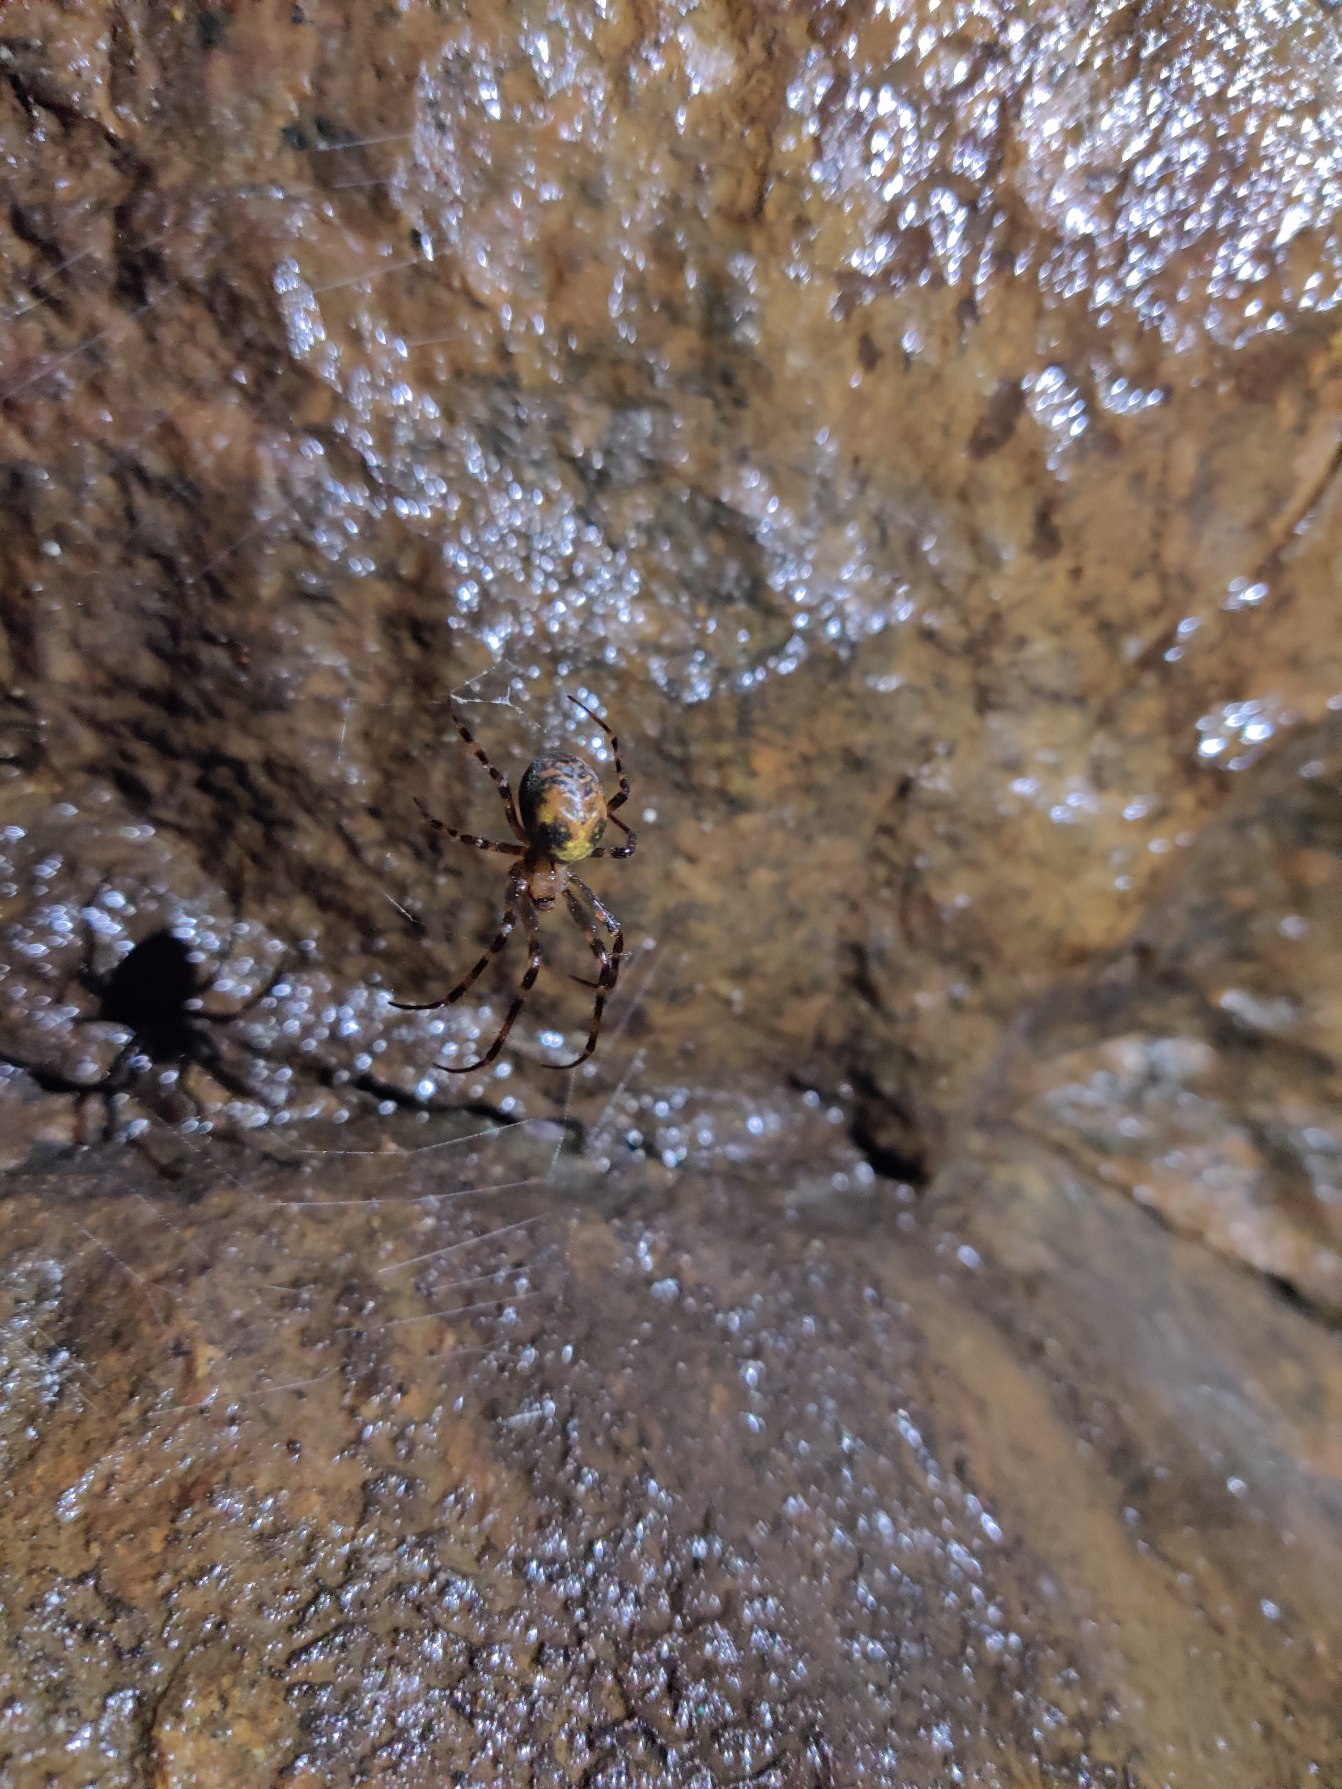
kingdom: Animalia
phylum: Arthropoda
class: Arachnida
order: Araneae
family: Tetragnathidae
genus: Meta
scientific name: Meta menardi
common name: Grotteedderkop
